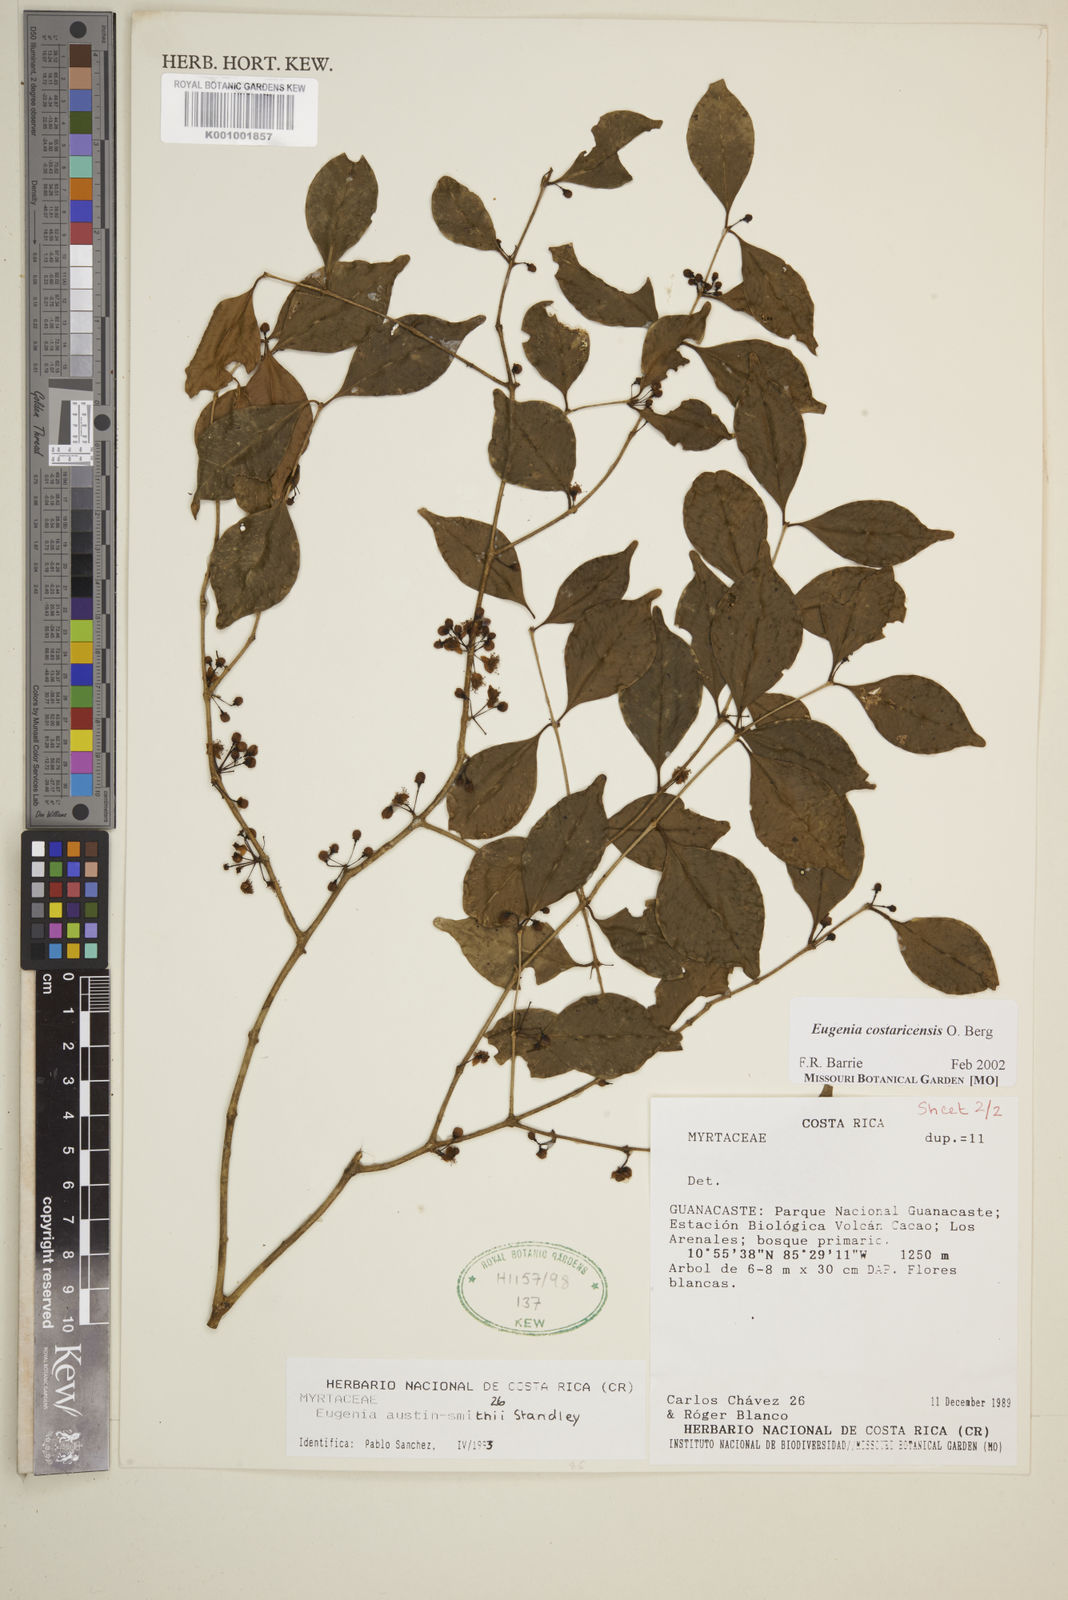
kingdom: Plantae
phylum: Tracheophyta
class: Magnoliopsida
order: Myrtales
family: Myrtaceae
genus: Eugenia
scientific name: Eugenia costaricensis
